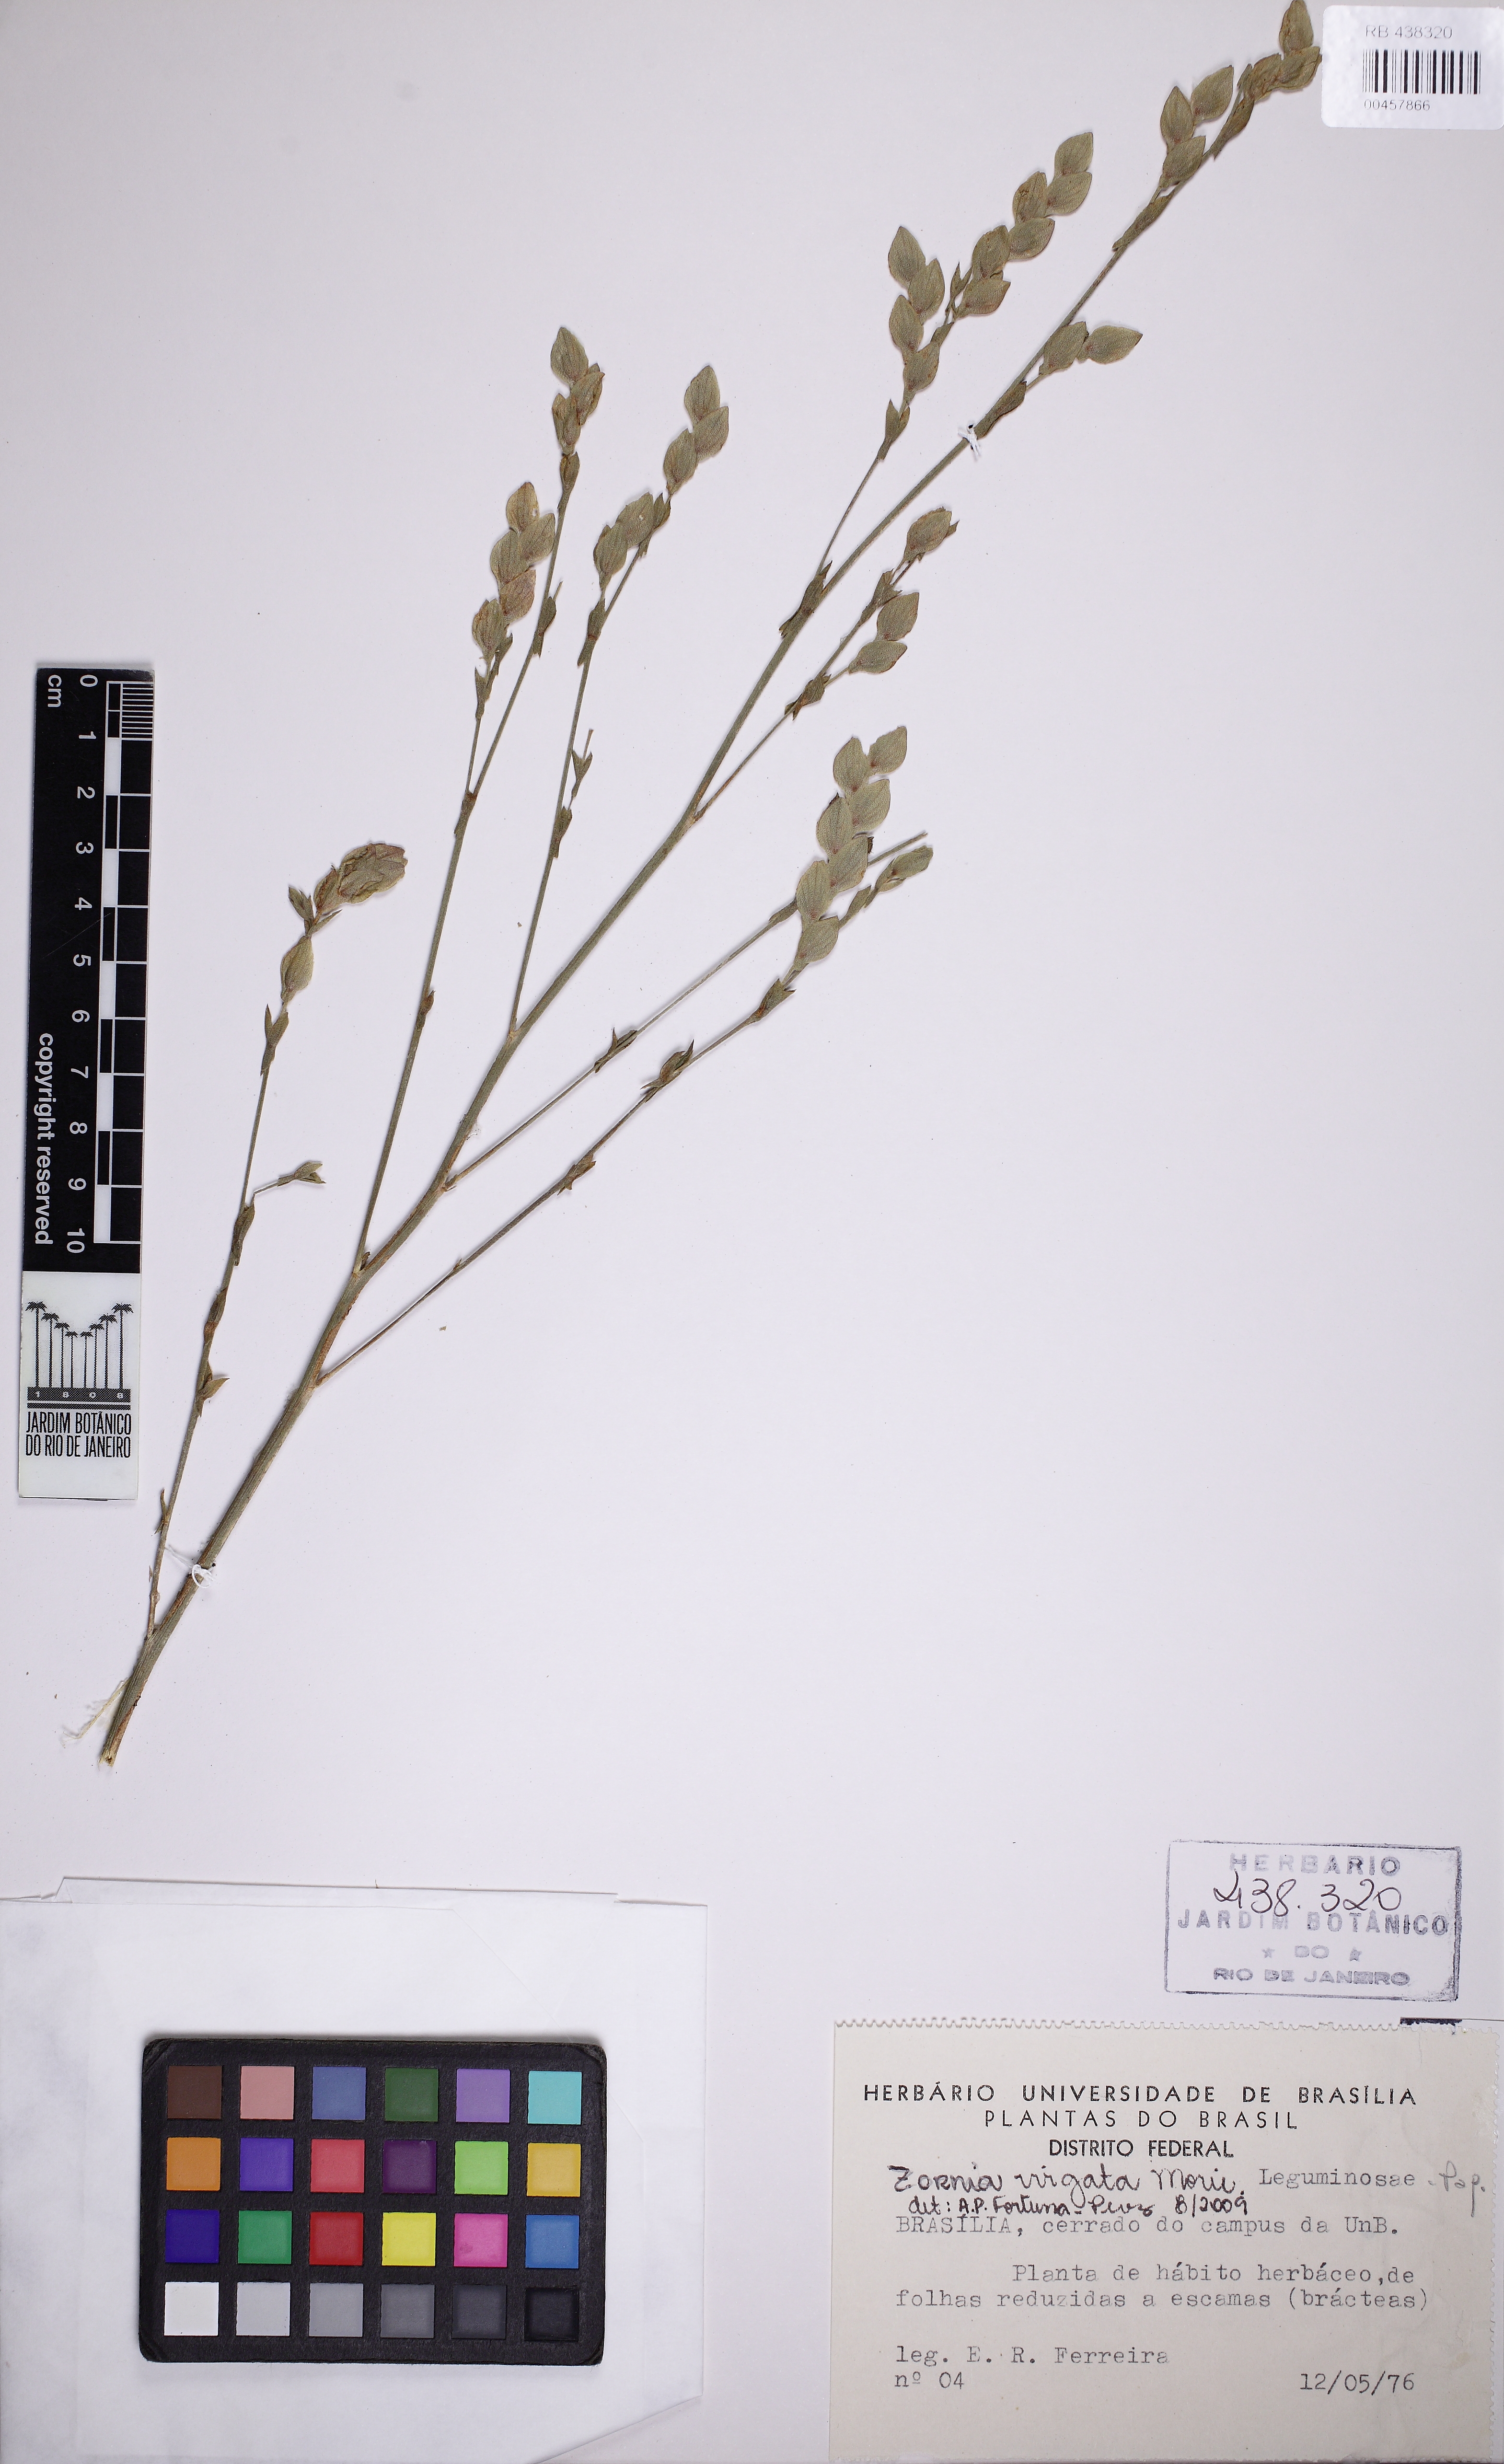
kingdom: Plantae
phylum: Tracheophyta
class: Magnoliopsida
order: Fabales
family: Fabaceae
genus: Zornia
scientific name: Zornia virgata
